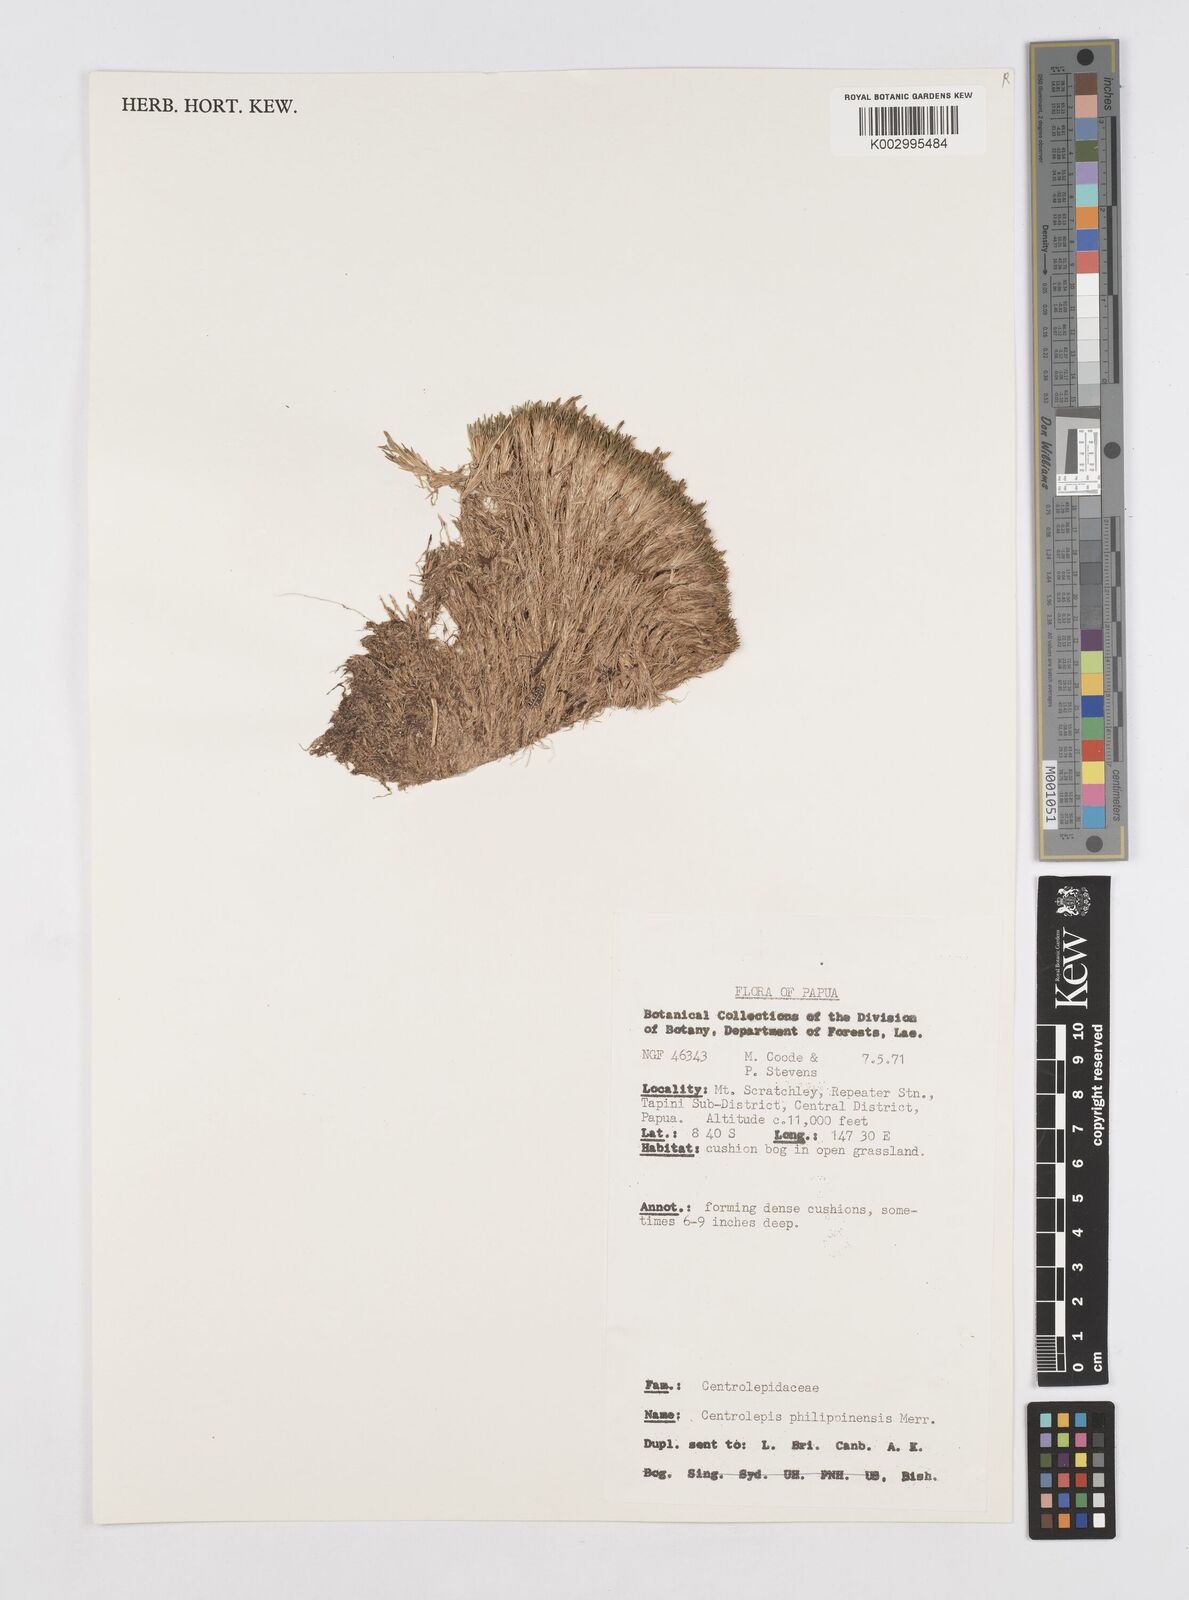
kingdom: Plantae
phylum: Tracheophyta
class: Liliopsida
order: Poales
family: Restionaceae
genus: Centrolepis
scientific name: Centrolepis philippinensis
